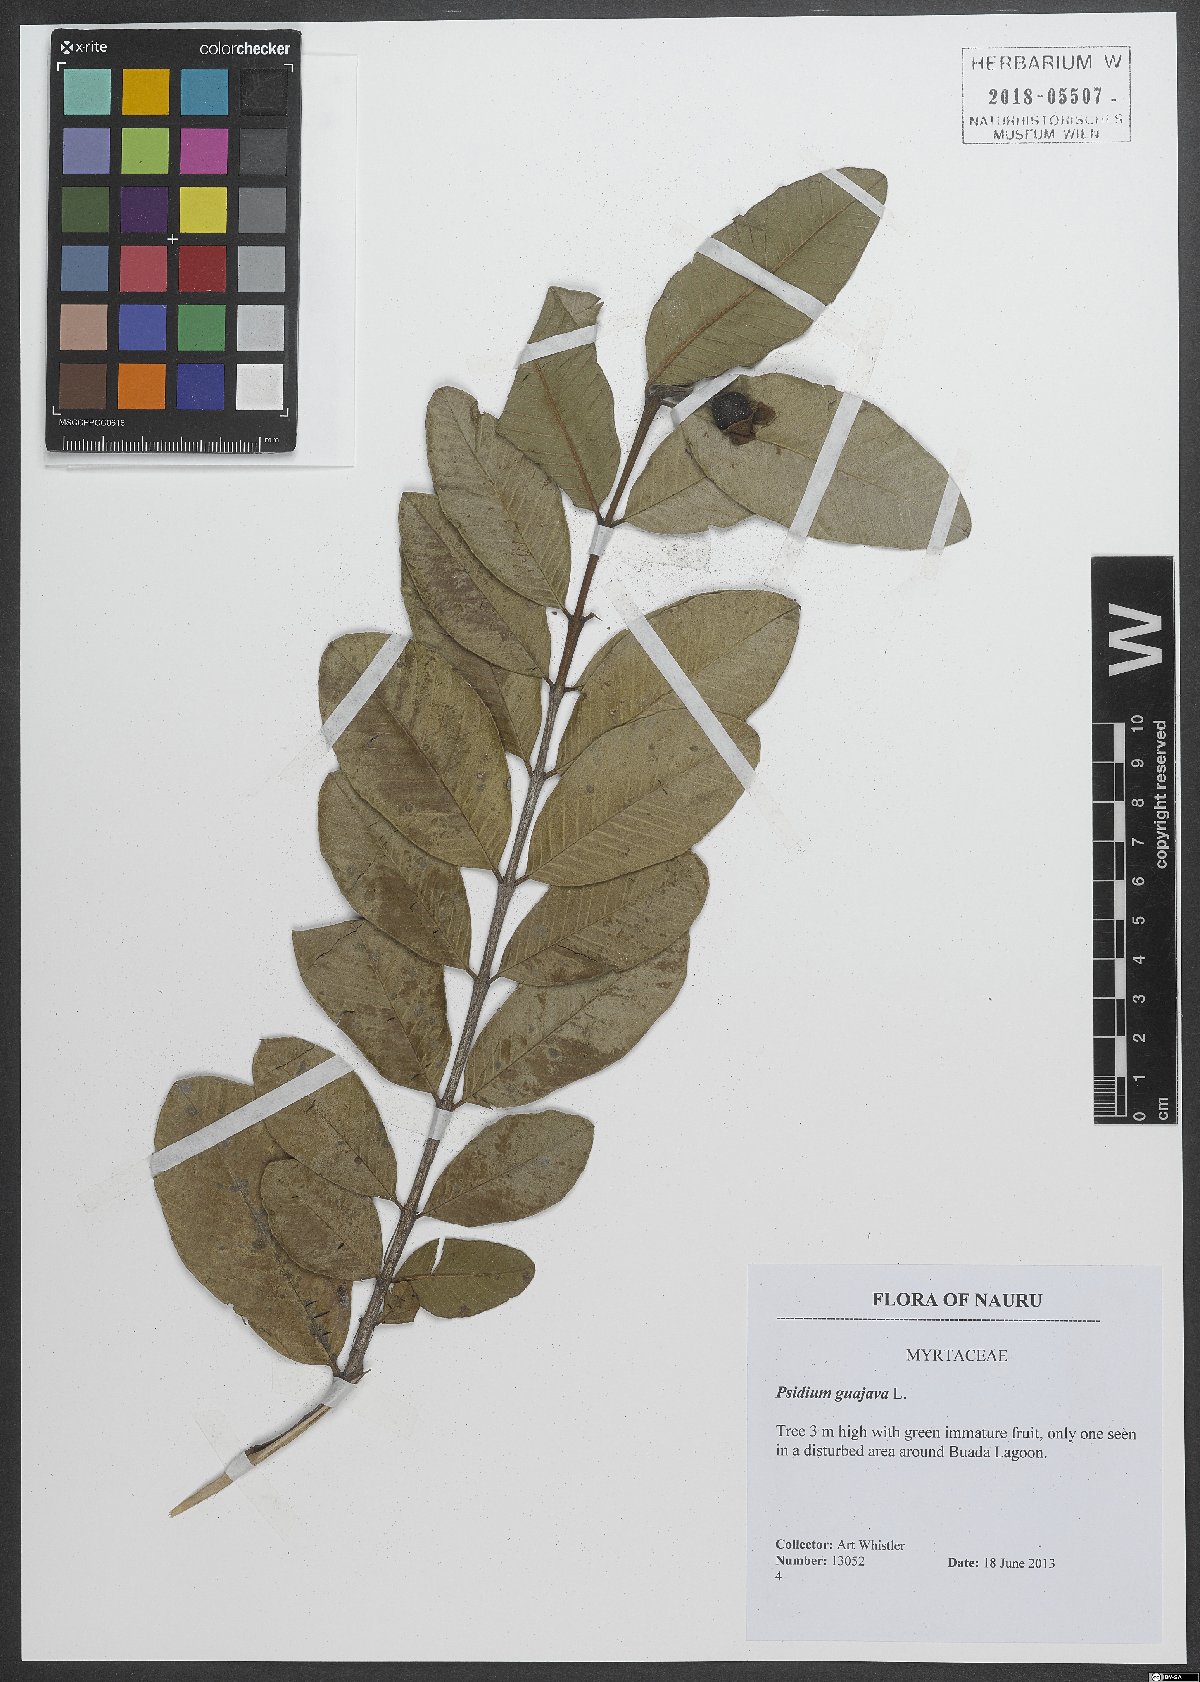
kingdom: Plantae
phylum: Tracheophyta
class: Magnoliopsida
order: Myrtales
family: Myrtaceae
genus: Psidium
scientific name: Psidium guajava
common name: Guava
